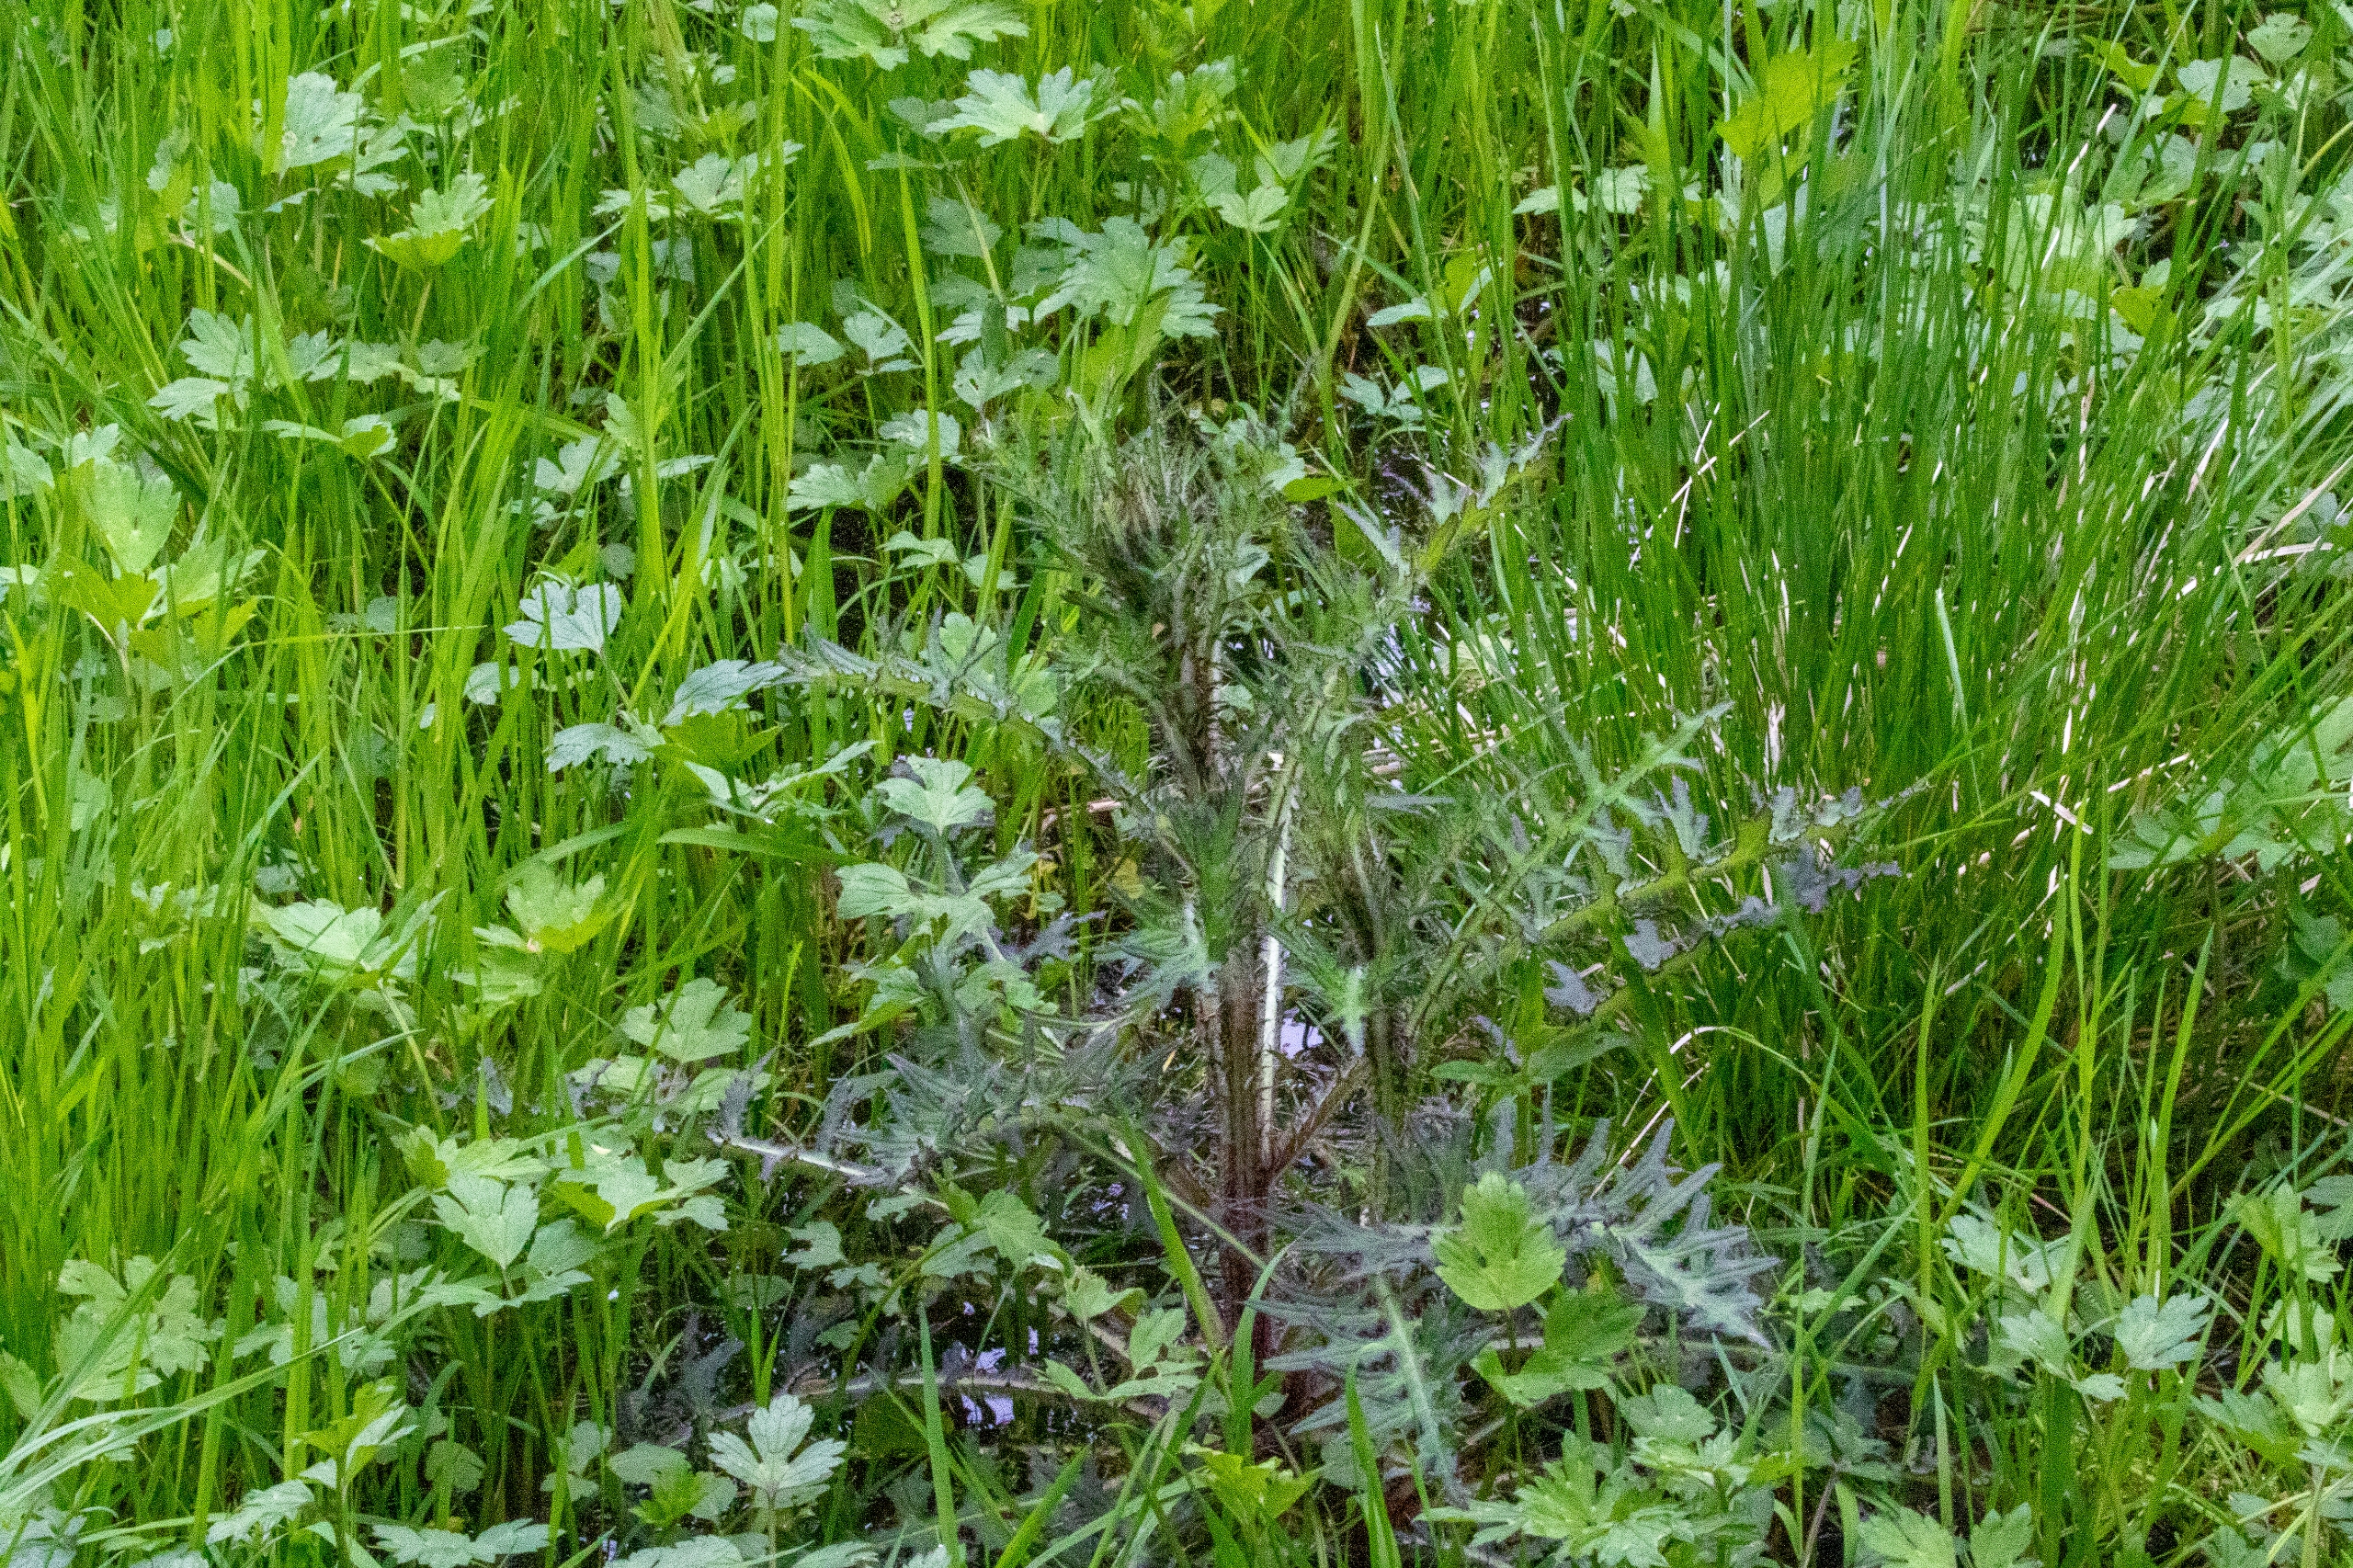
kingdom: Plantae
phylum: Tracheophyta
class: Magnoliopsida
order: Asterales
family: Asteraceae
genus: Cirsium
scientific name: Cirsium palustre
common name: Kær-tidsel
